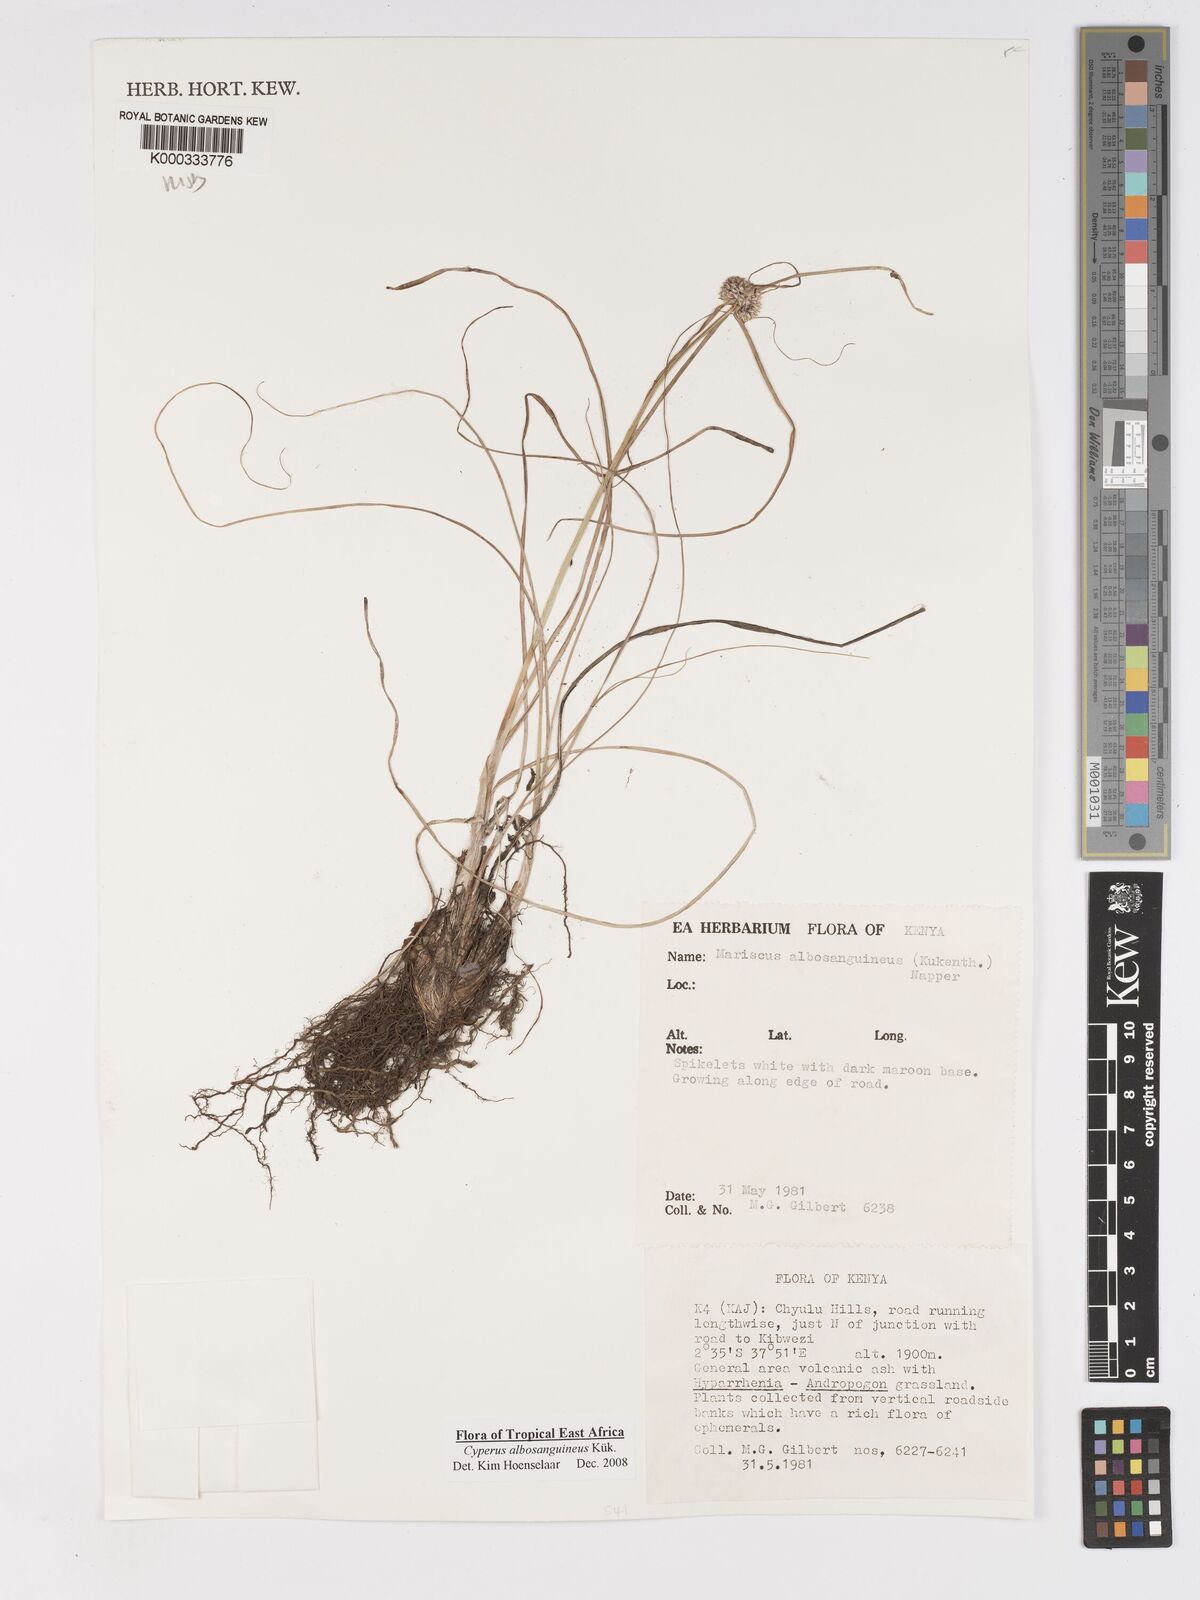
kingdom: Plantae
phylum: Tracheophyta
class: Liliopsida
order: Poales
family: Cyperaceae
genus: Cyperus
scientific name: Cyperus
